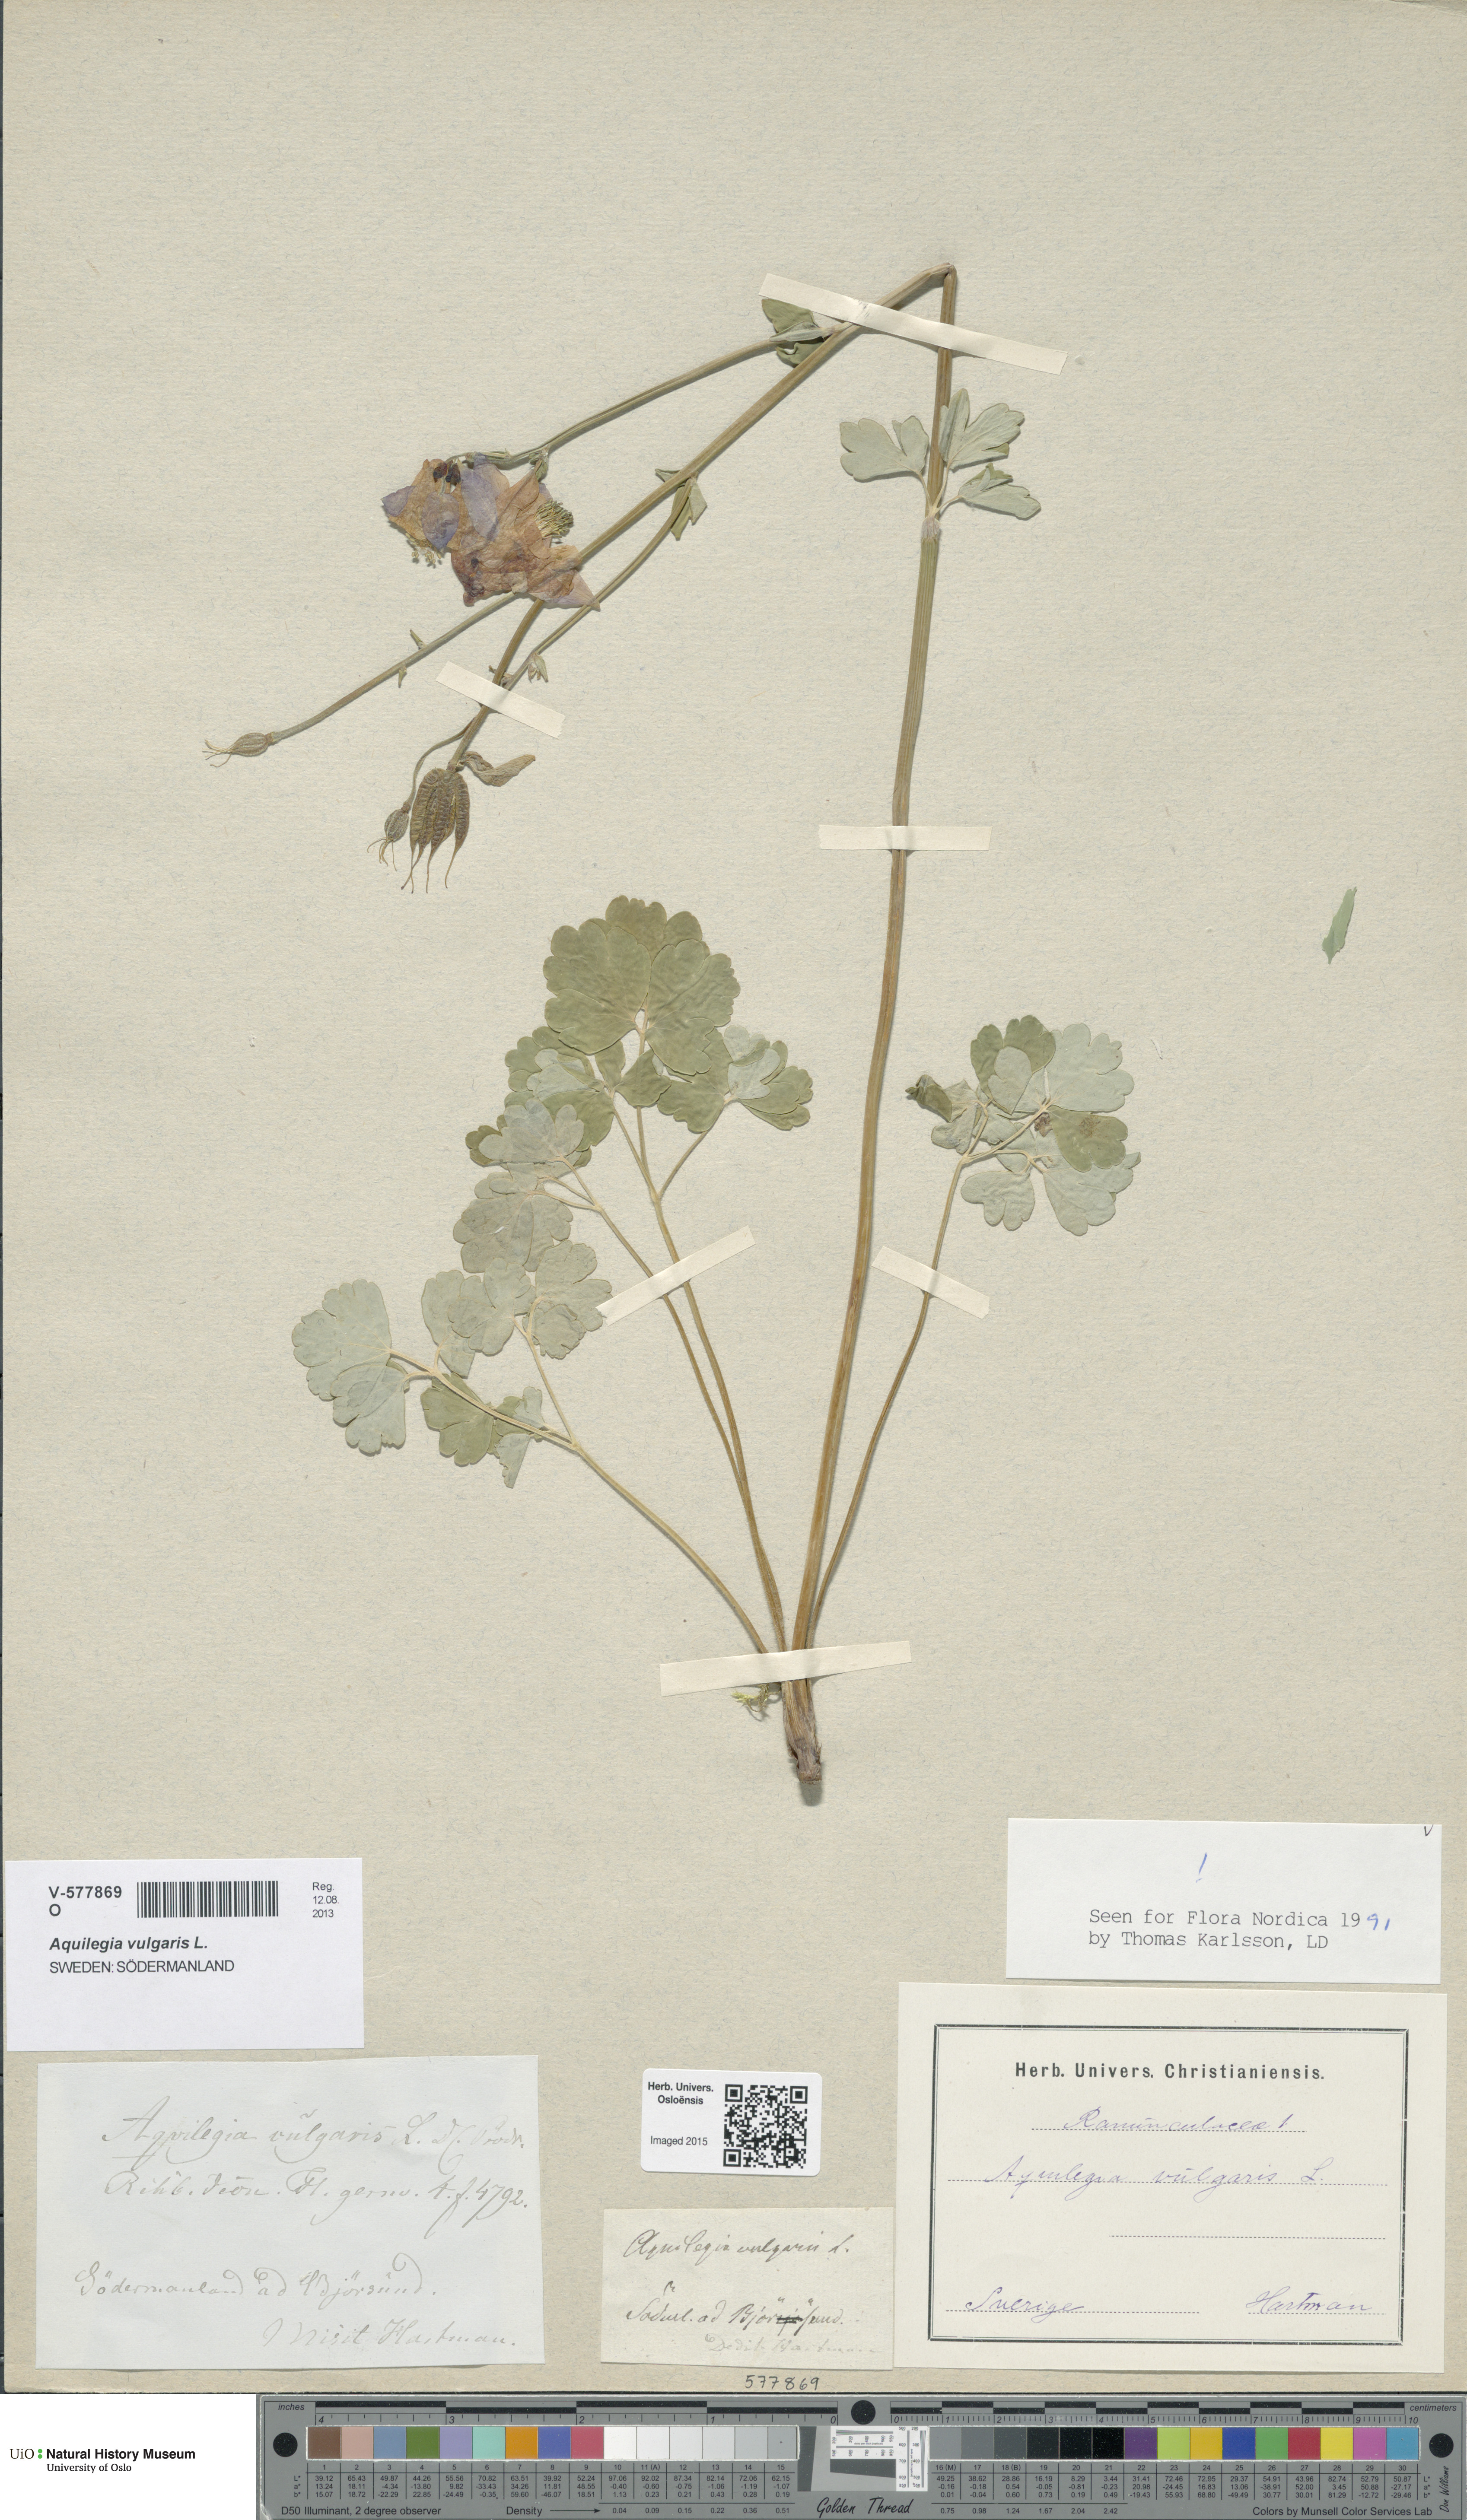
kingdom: Plantae
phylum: Tracheophyta
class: Magnoliopsida
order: Ranunculales
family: Ranunculaceae
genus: Aquilegia
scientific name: Aquilegia vulgaris
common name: Columbine
